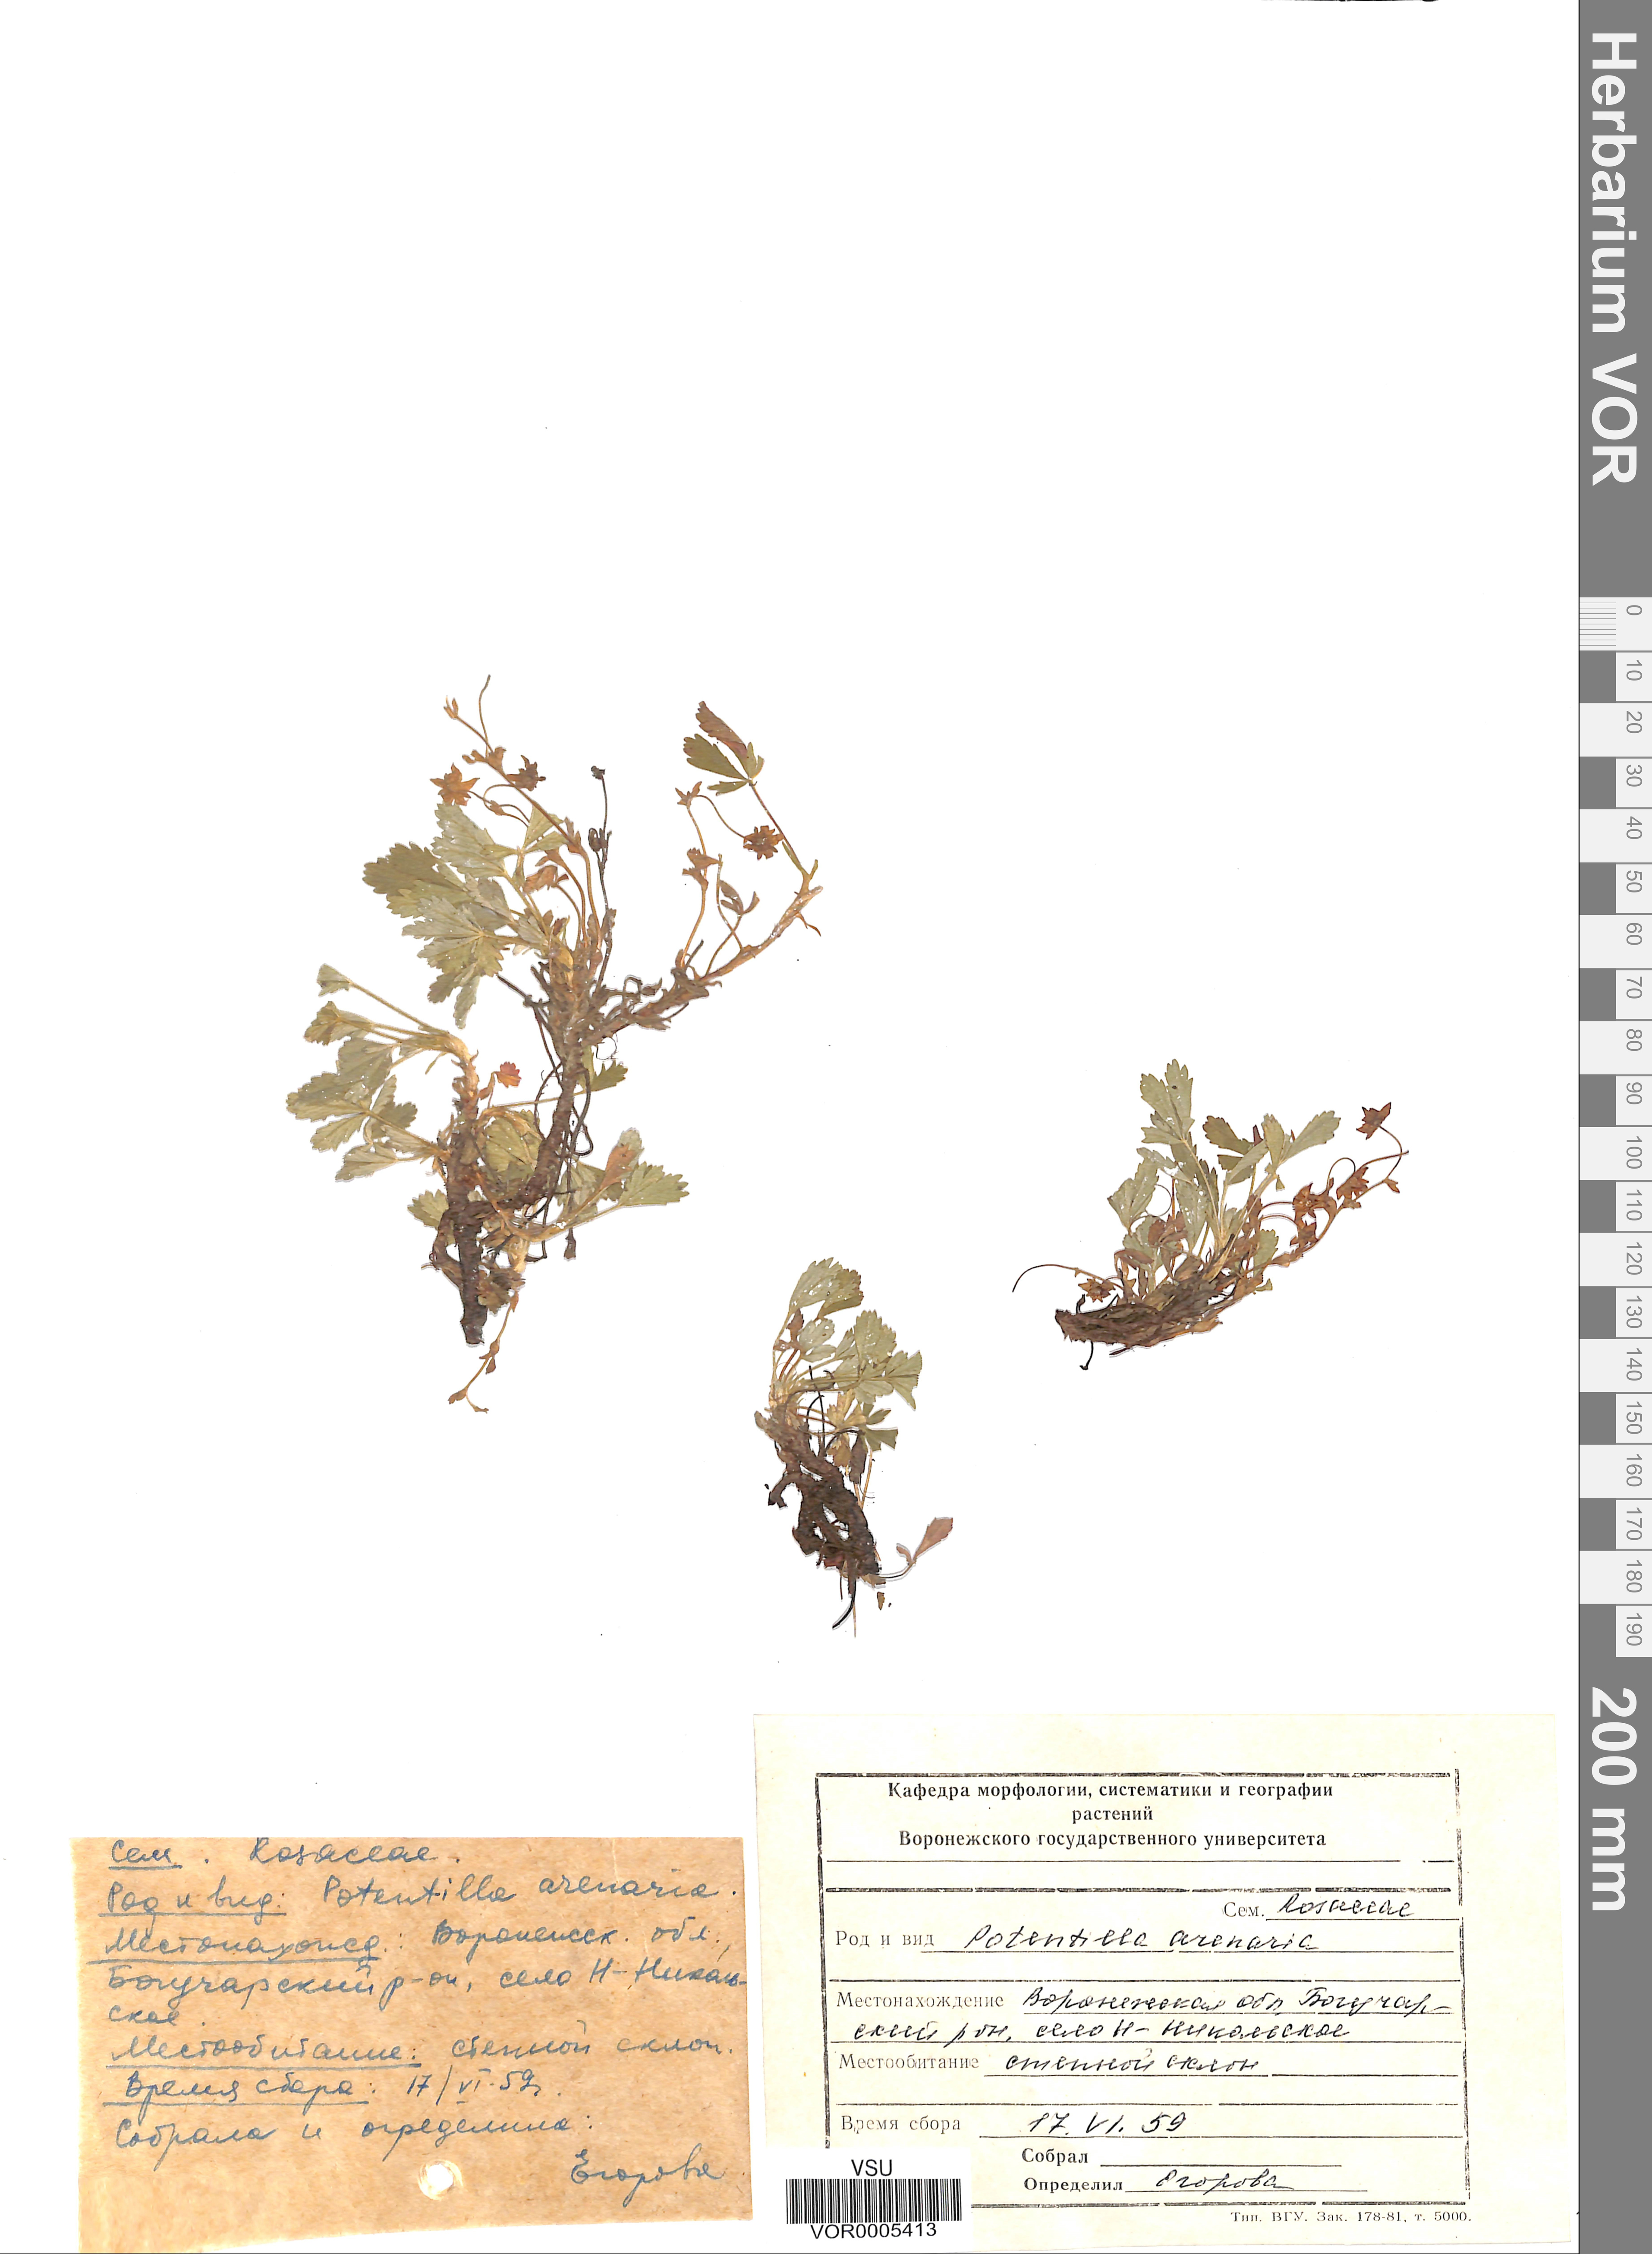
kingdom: Plantae
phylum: Tracheophyta
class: Magnoliopsida
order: Rosales
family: Rosaceae
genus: Potentilla
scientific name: Potentilla cinerea
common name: Ashy cinquefoil
